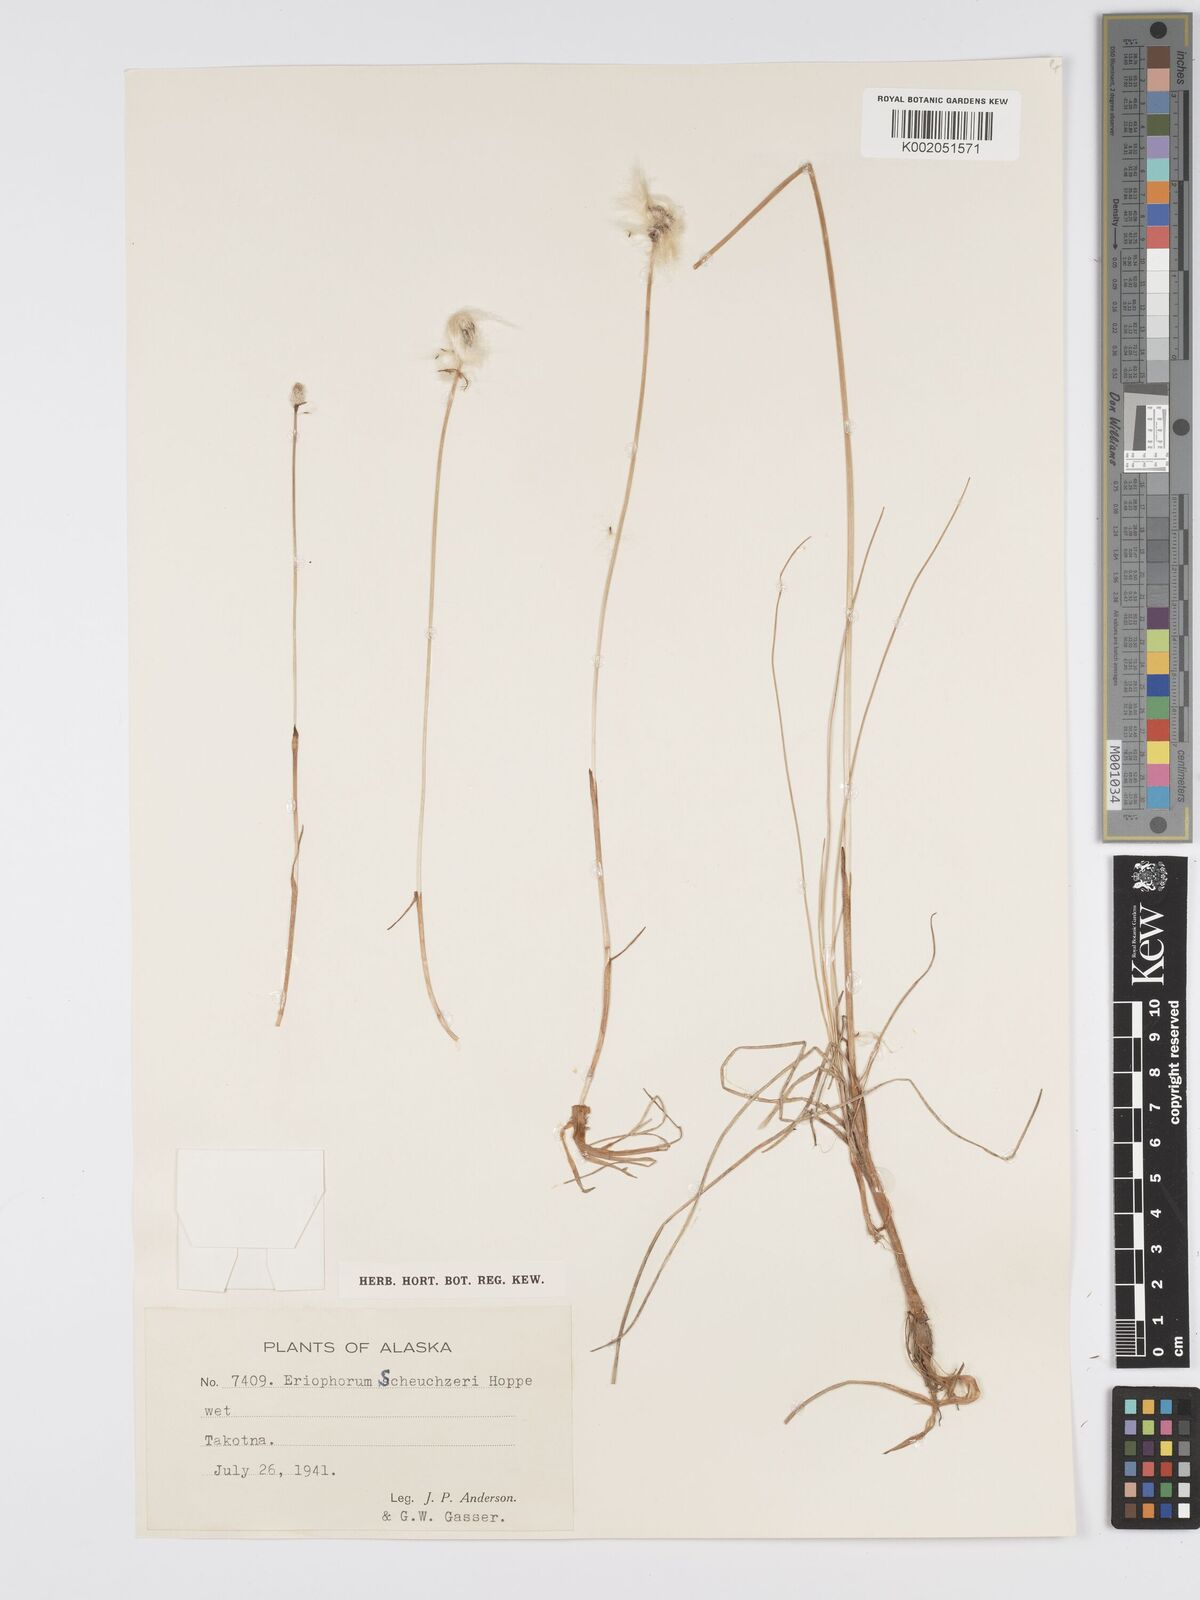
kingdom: Plantae
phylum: Tracheophyta
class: Liliopsida
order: Poales
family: Cyperaceae
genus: Eriophorum
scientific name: Eriophorum scheuchzeri
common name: Scheuchzer's cottongrass
